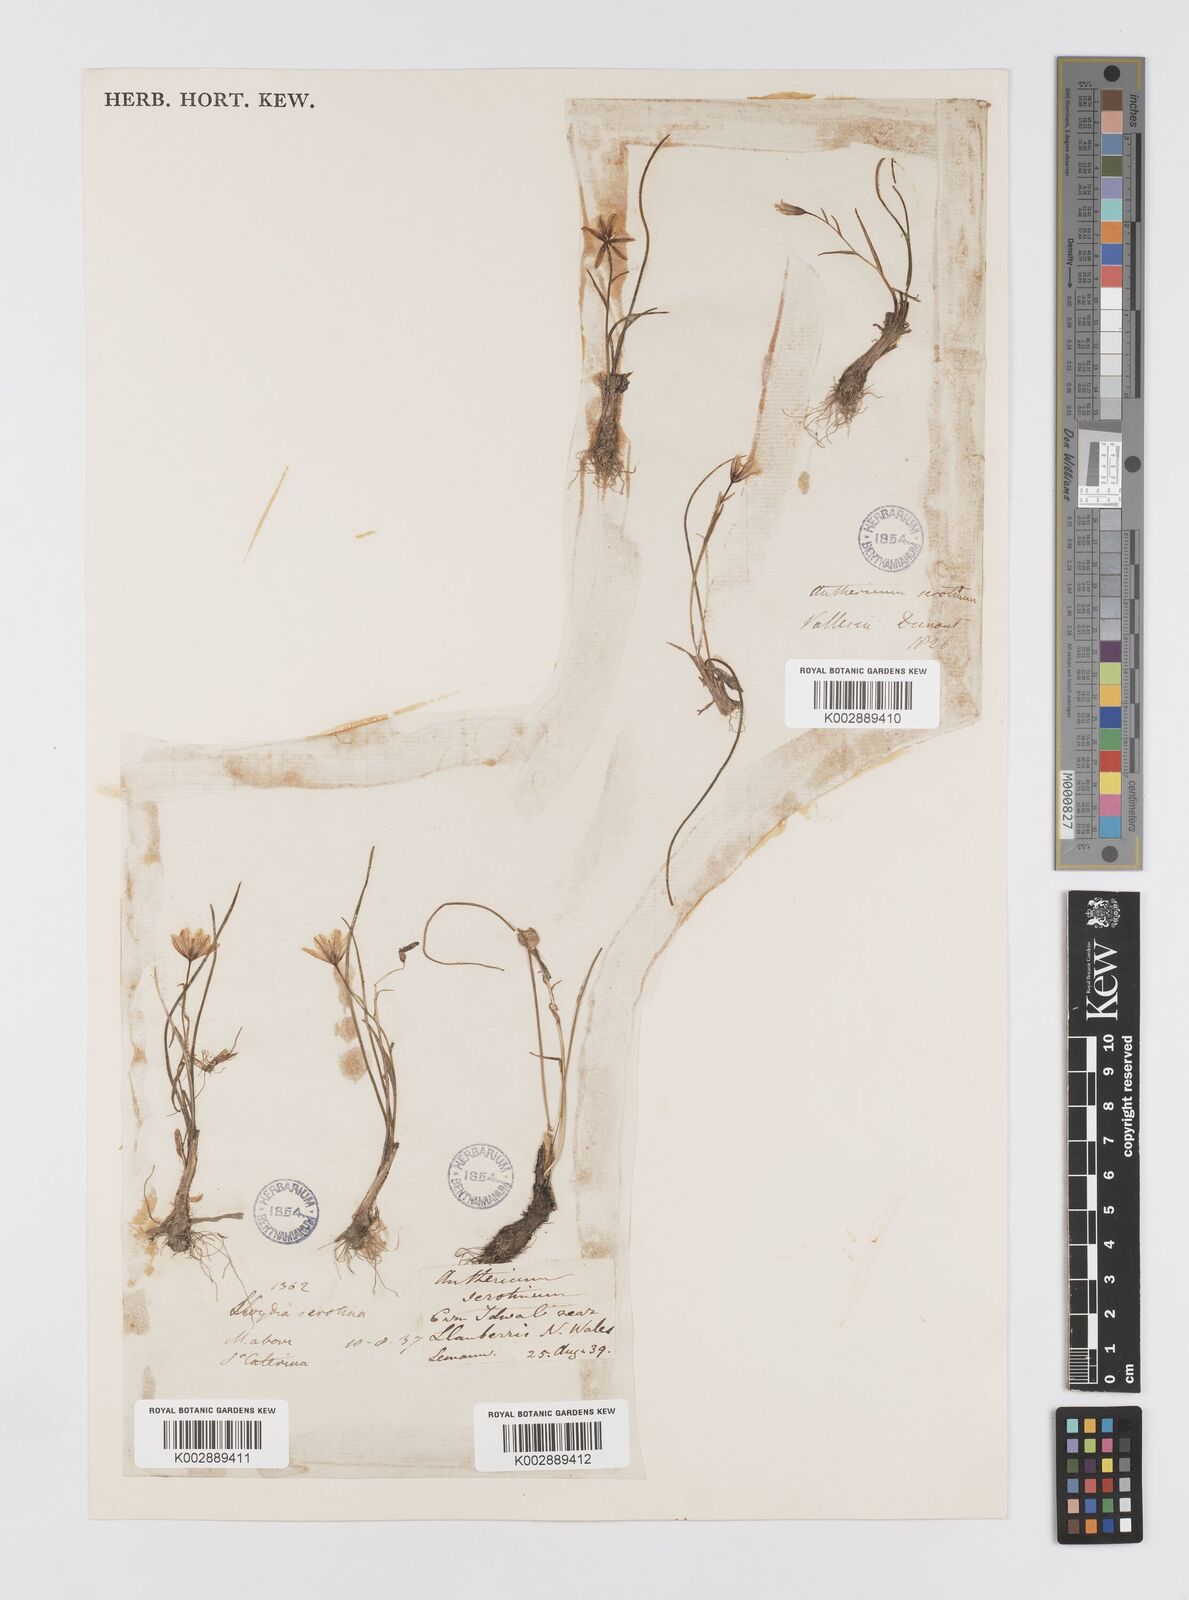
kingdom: Plantae
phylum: Tracheophyta
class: Liliopsida
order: Liliales
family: Liliaceae
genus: Gagea
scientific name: Gagea
